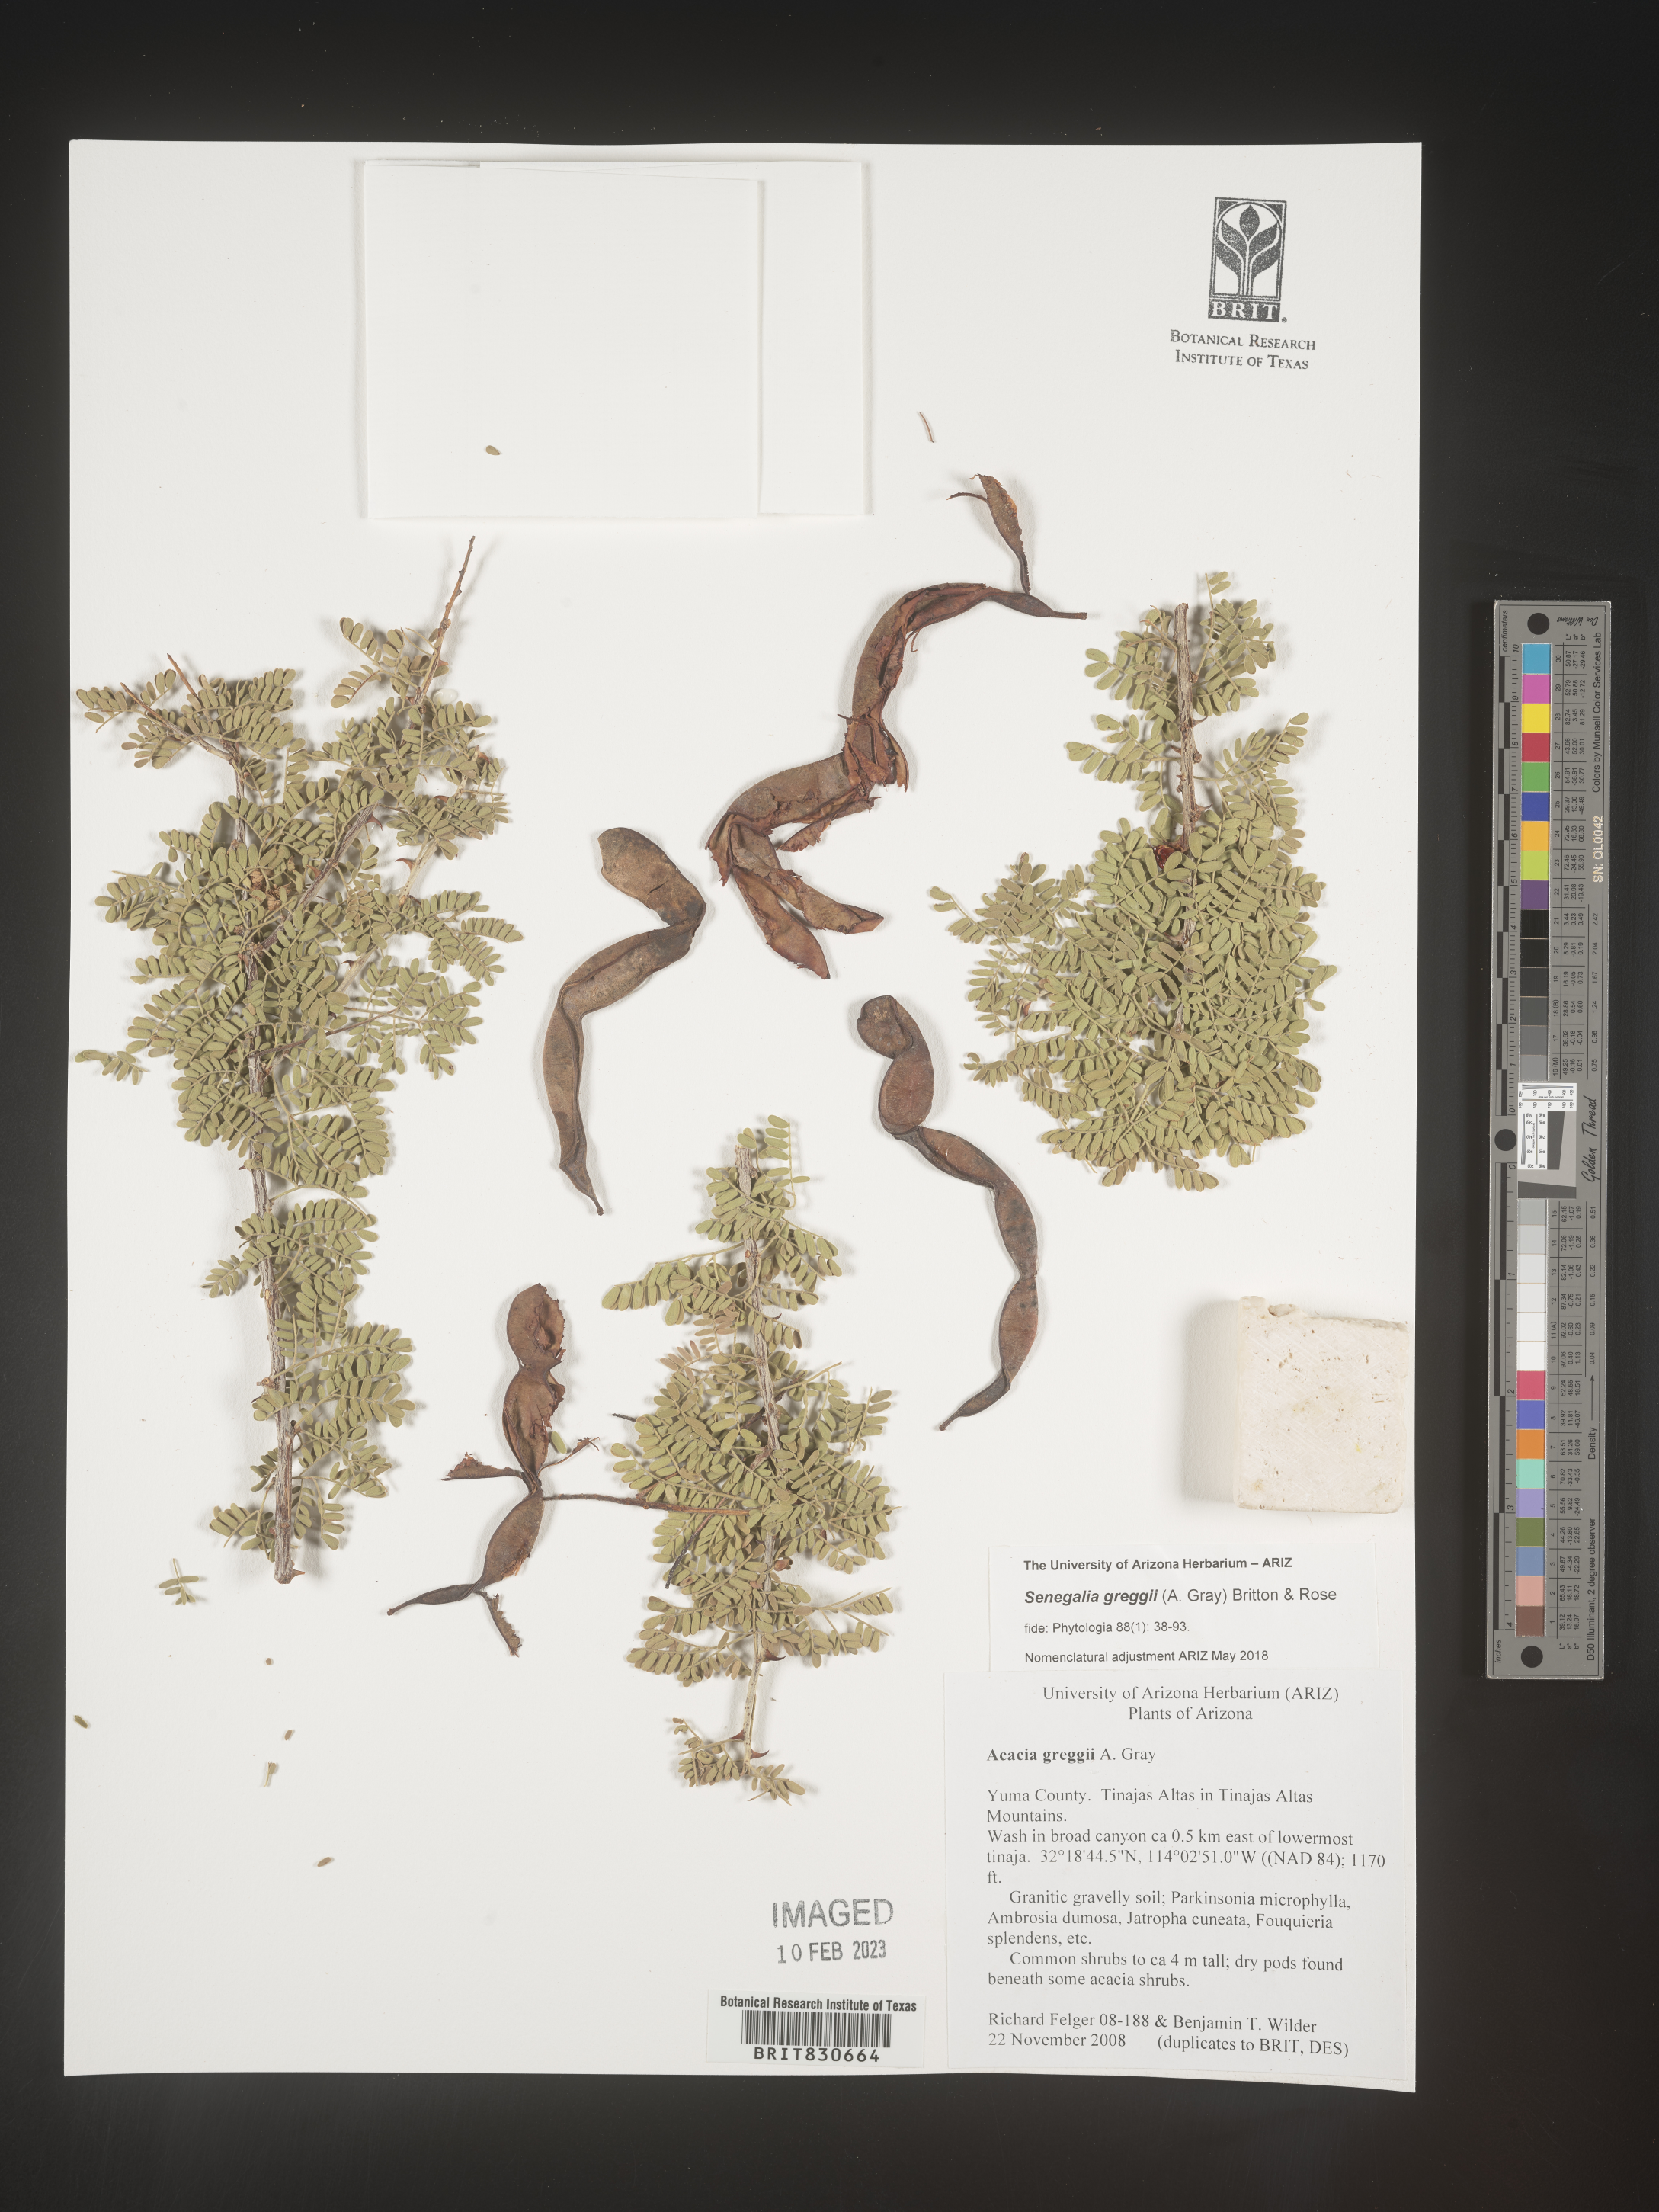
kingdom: Plantae
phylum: Tracheophyta
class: Magnoliopsida
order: Fabales
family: Fabaceae
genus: Senegalia
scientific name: Senegalia greggii
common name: Texas-mimosa
